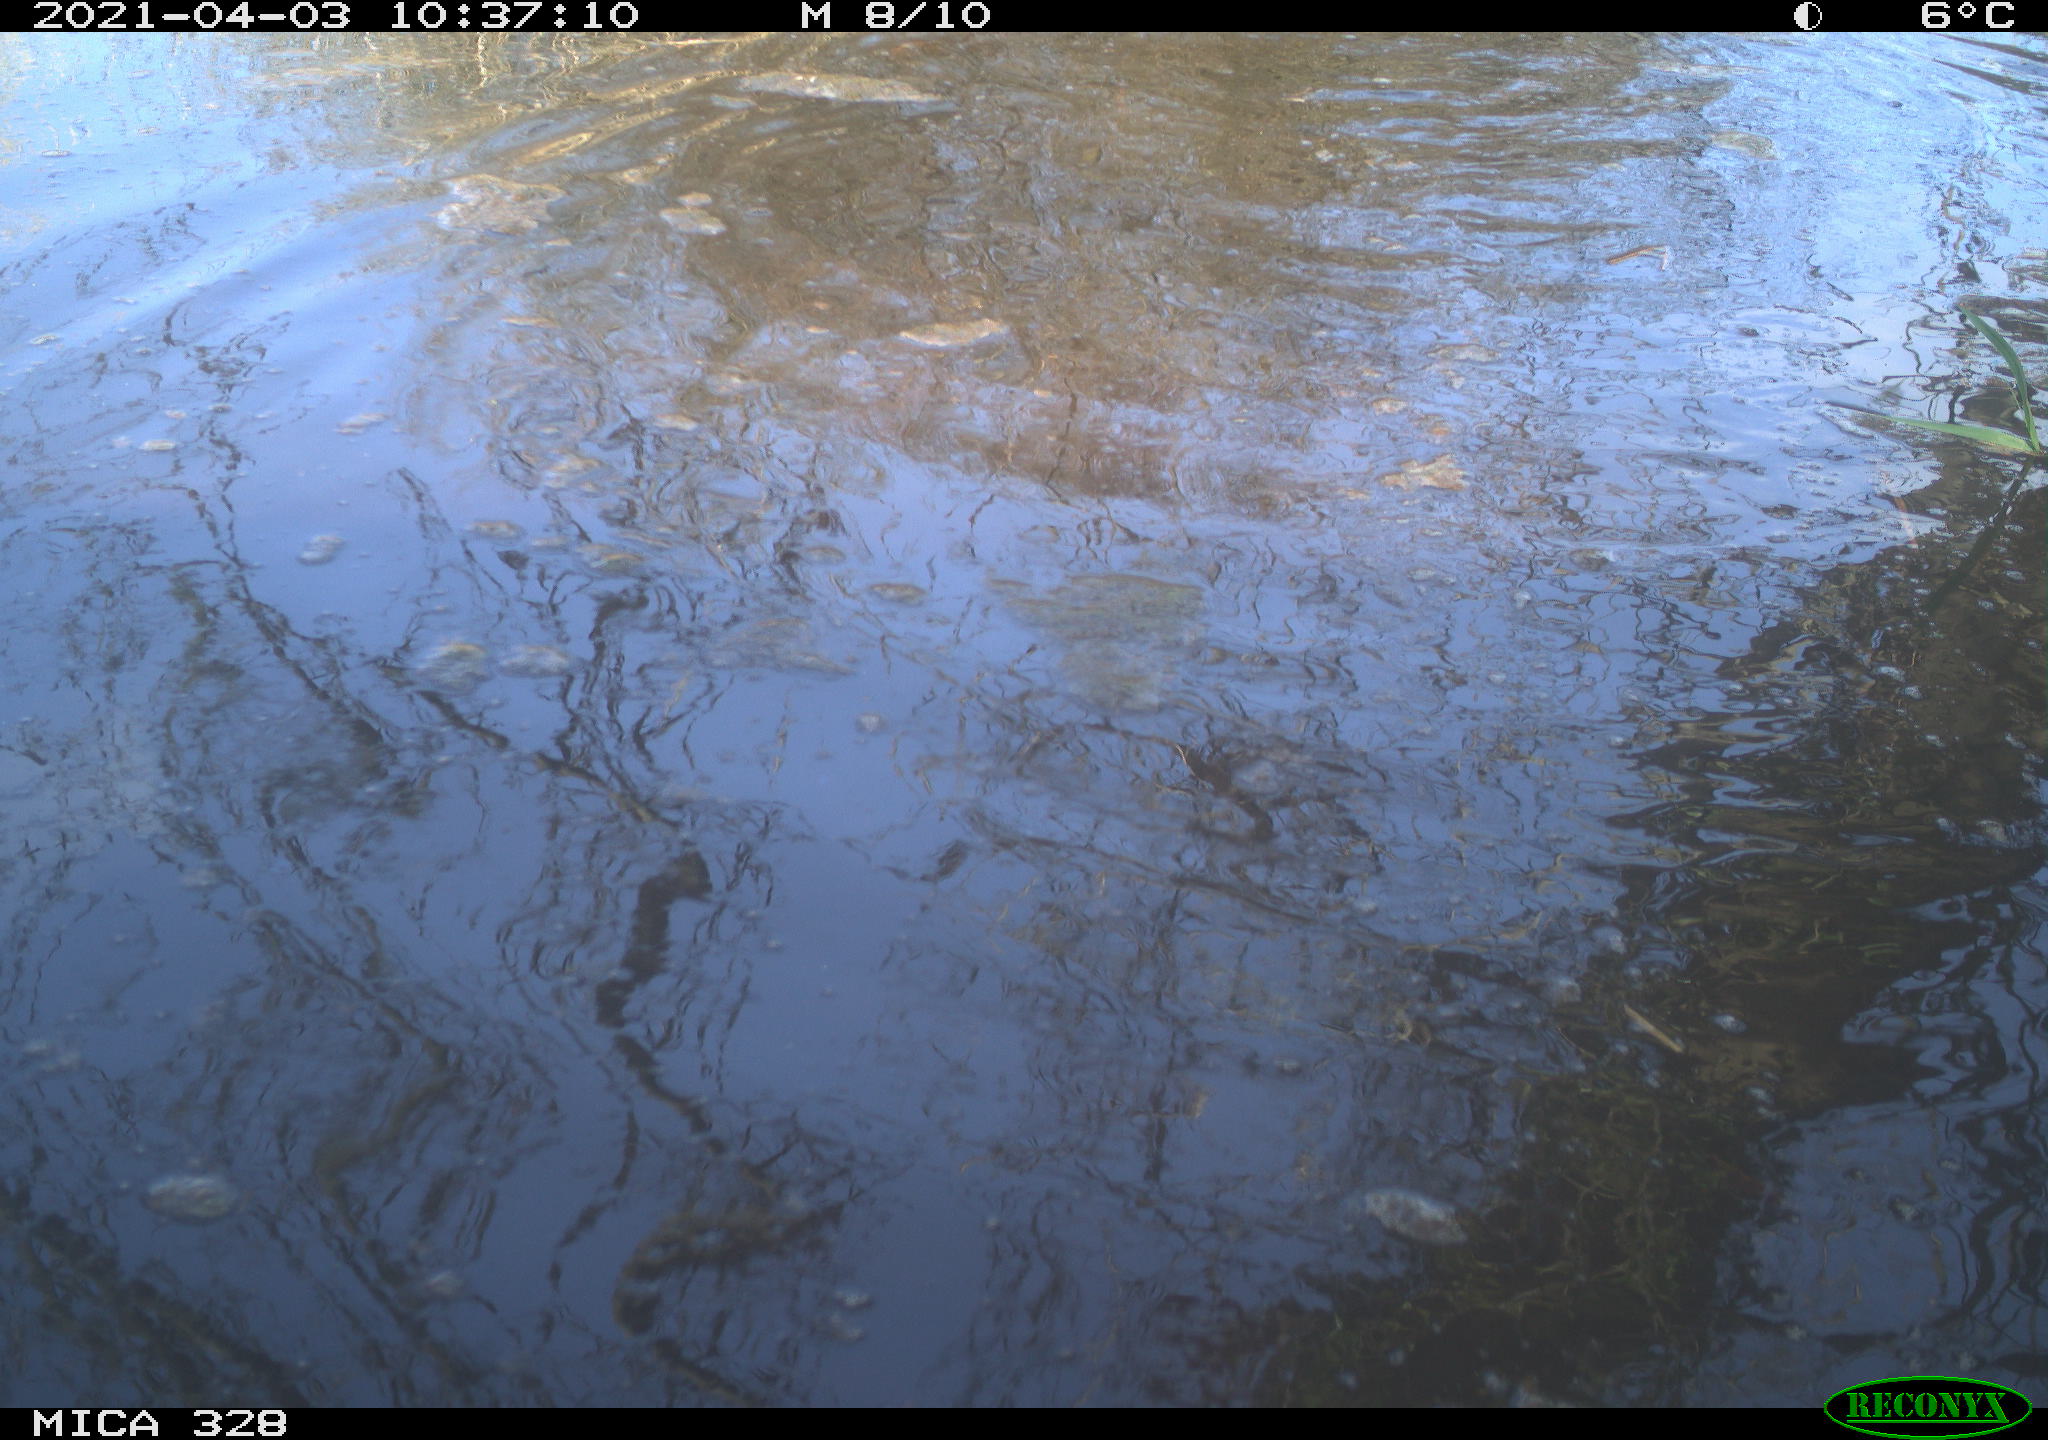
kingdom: Animalia
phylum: Chordata
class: Mammalia
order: Rodentia
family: Cricetidae
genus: Ondatra
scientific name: Ondatra zibethicus
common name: Muskrat
